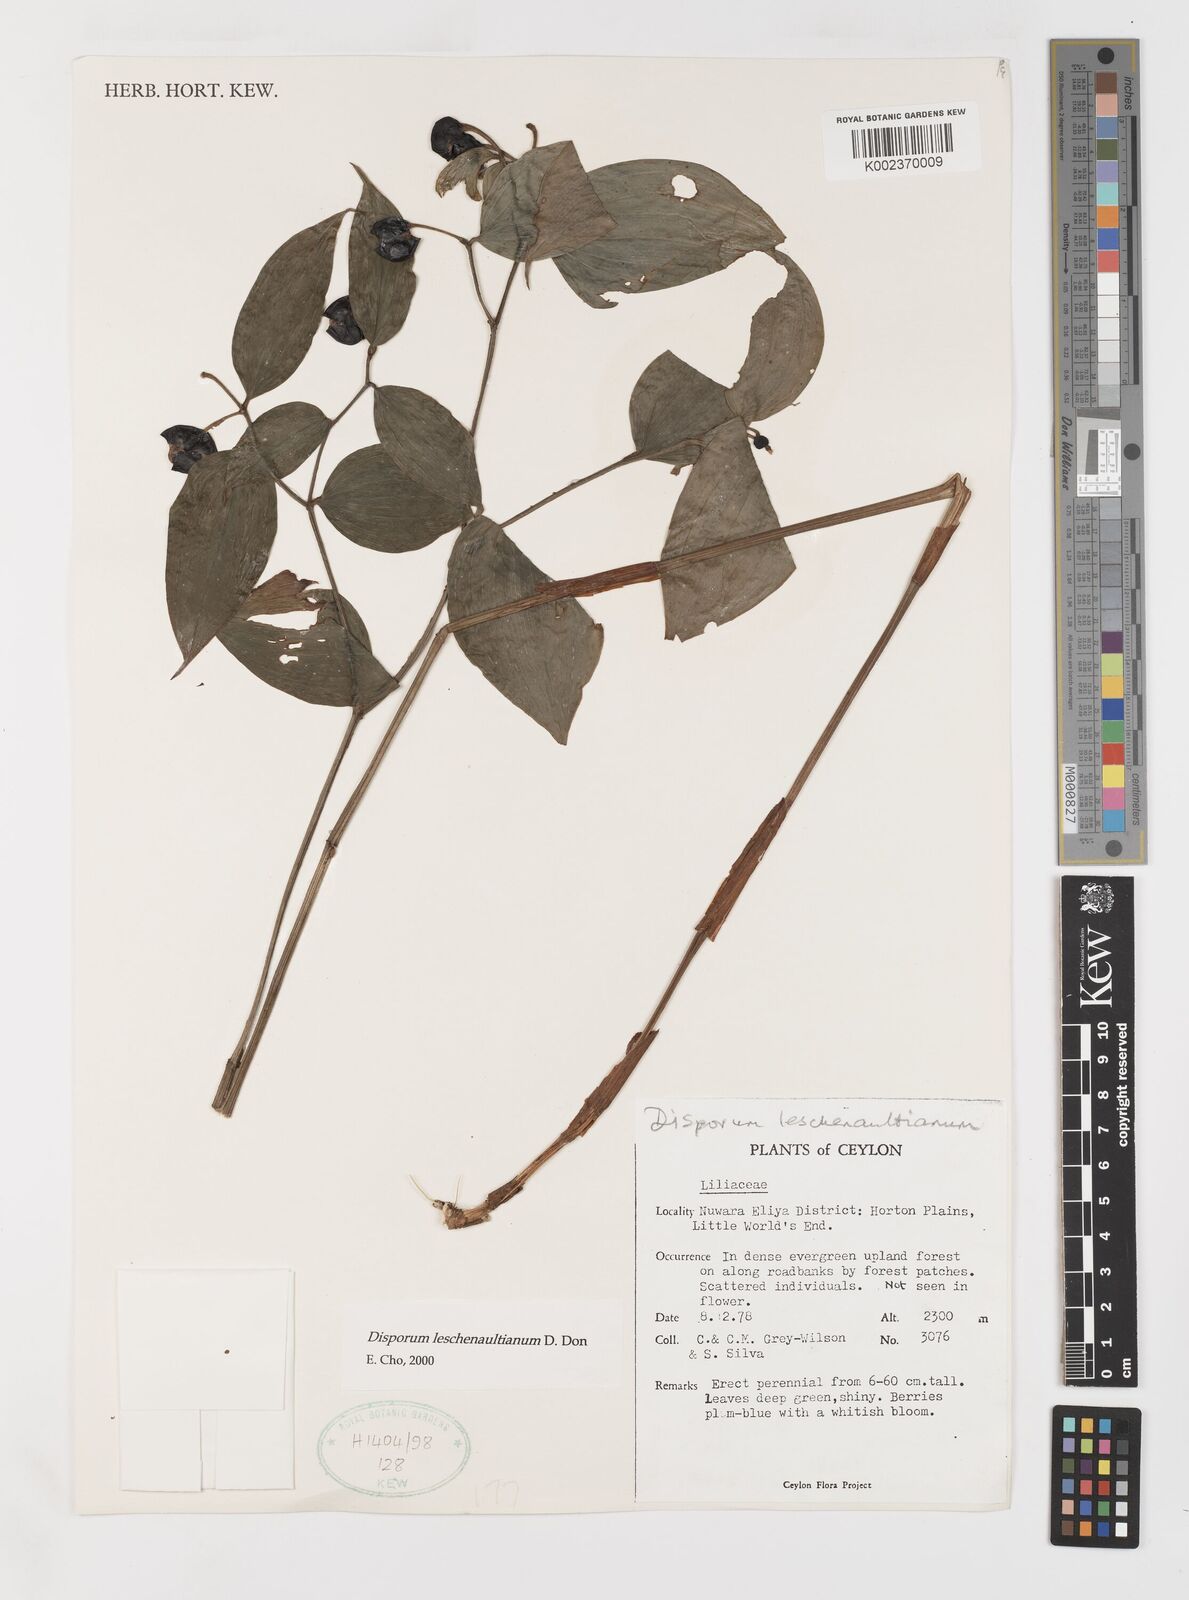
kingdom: Plantae
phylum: Tracheophyta
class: Liliopsida
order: Liliales
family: Colchicaceae
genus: Disporum
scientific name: Disporum cantoniense
